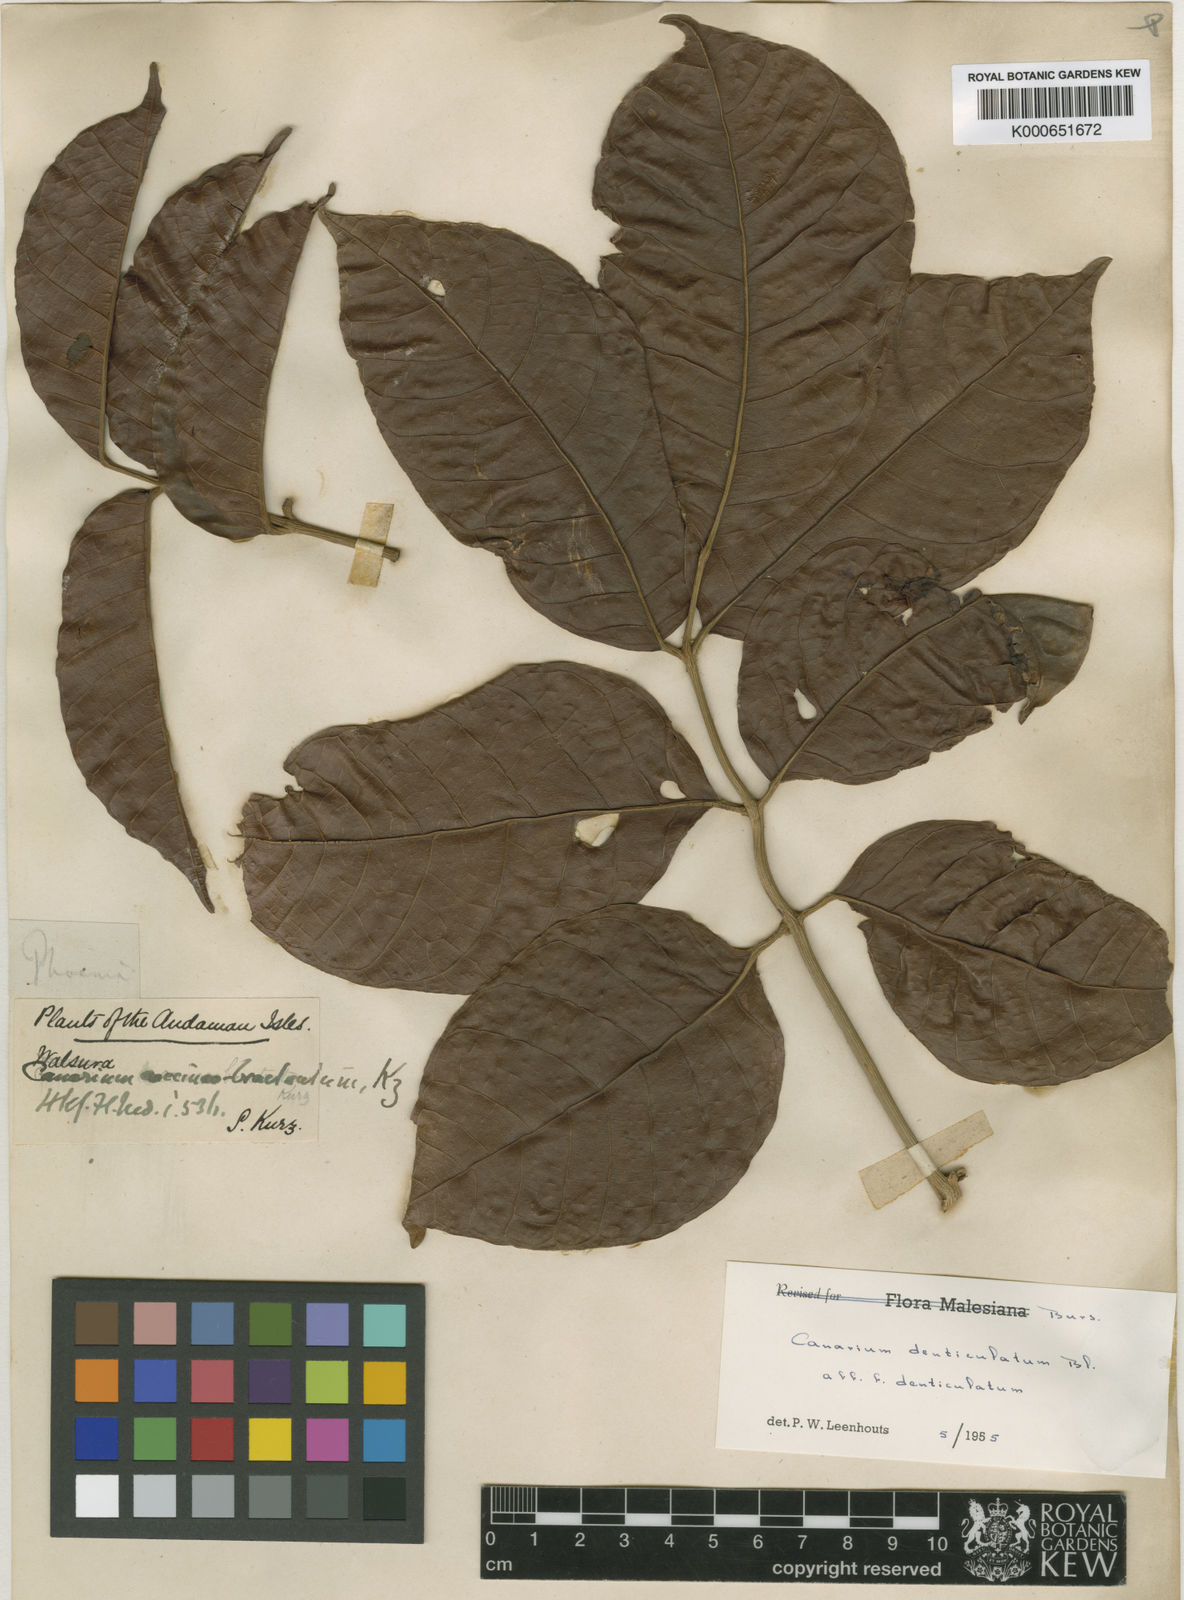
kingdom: Plantae
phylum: Tracheophyta
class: Magnoliopsida
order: Sapindales
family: Burseraceae
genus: Canarium
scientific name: Canarium denticulatum
